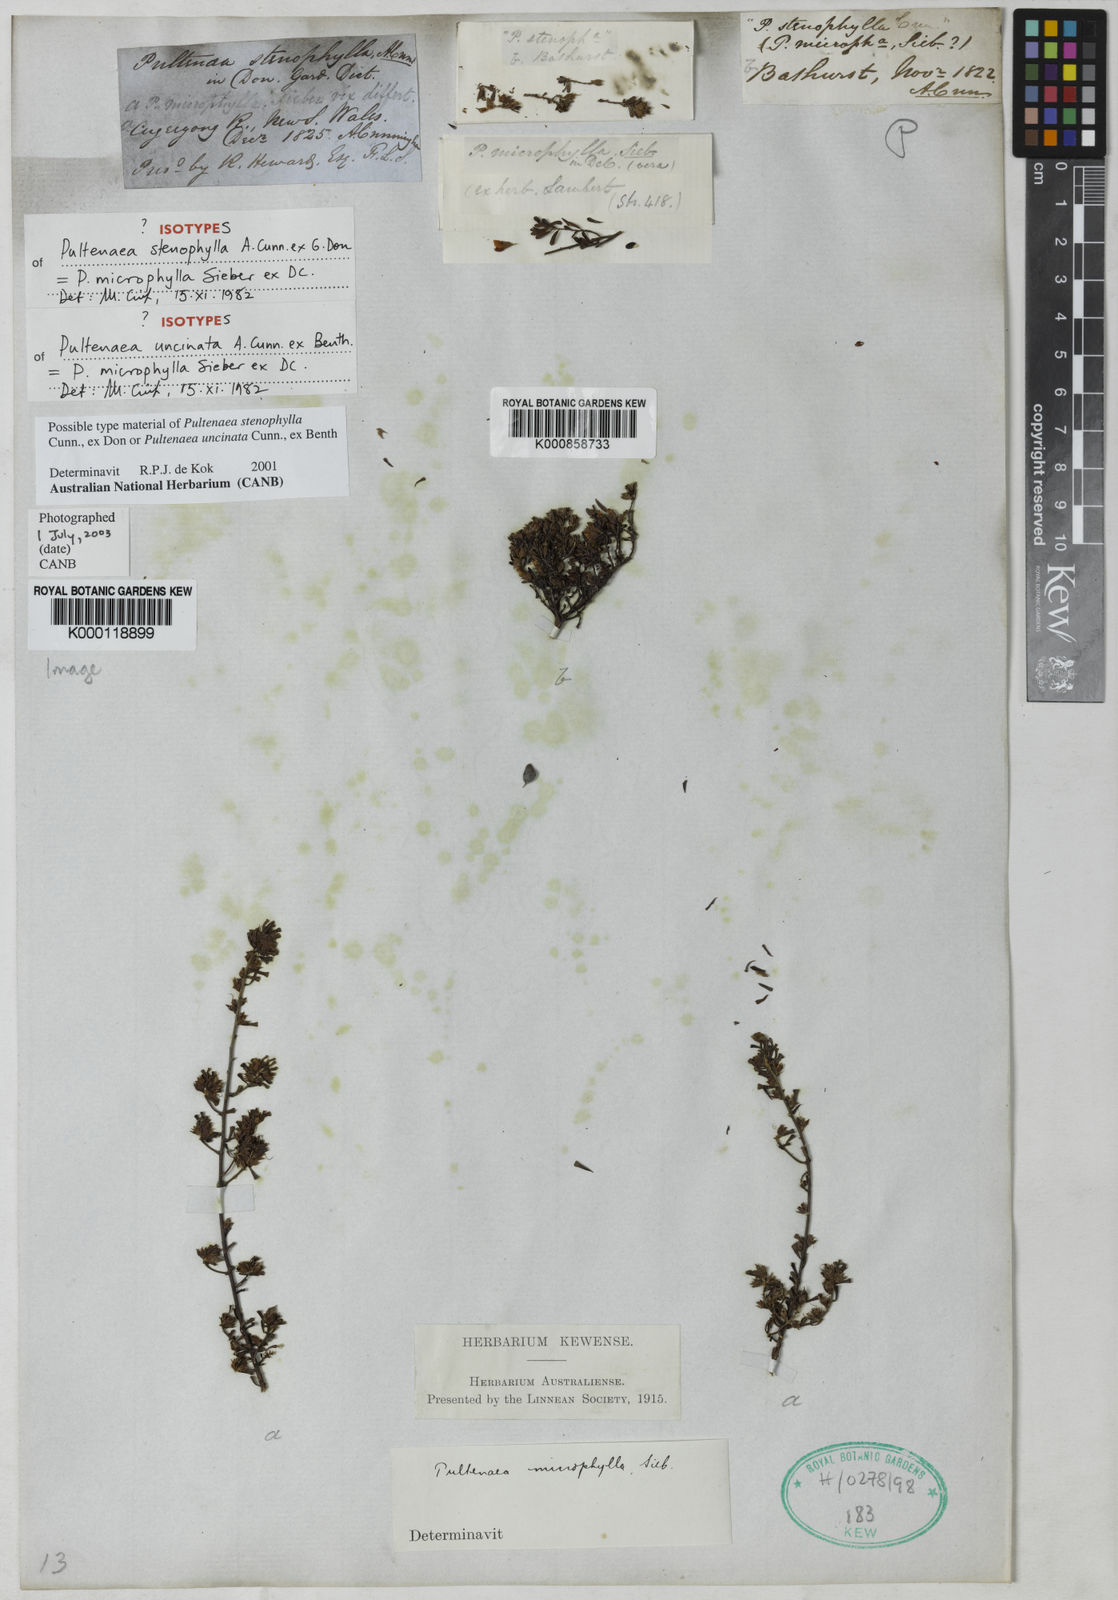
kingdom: Plantae
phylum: Tracheophyta
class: Magnoliopsida
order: Fabales
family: Fabaceae
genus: Pultenaea
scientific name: Pultenaea microphylla
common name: Spreading bush-pea
